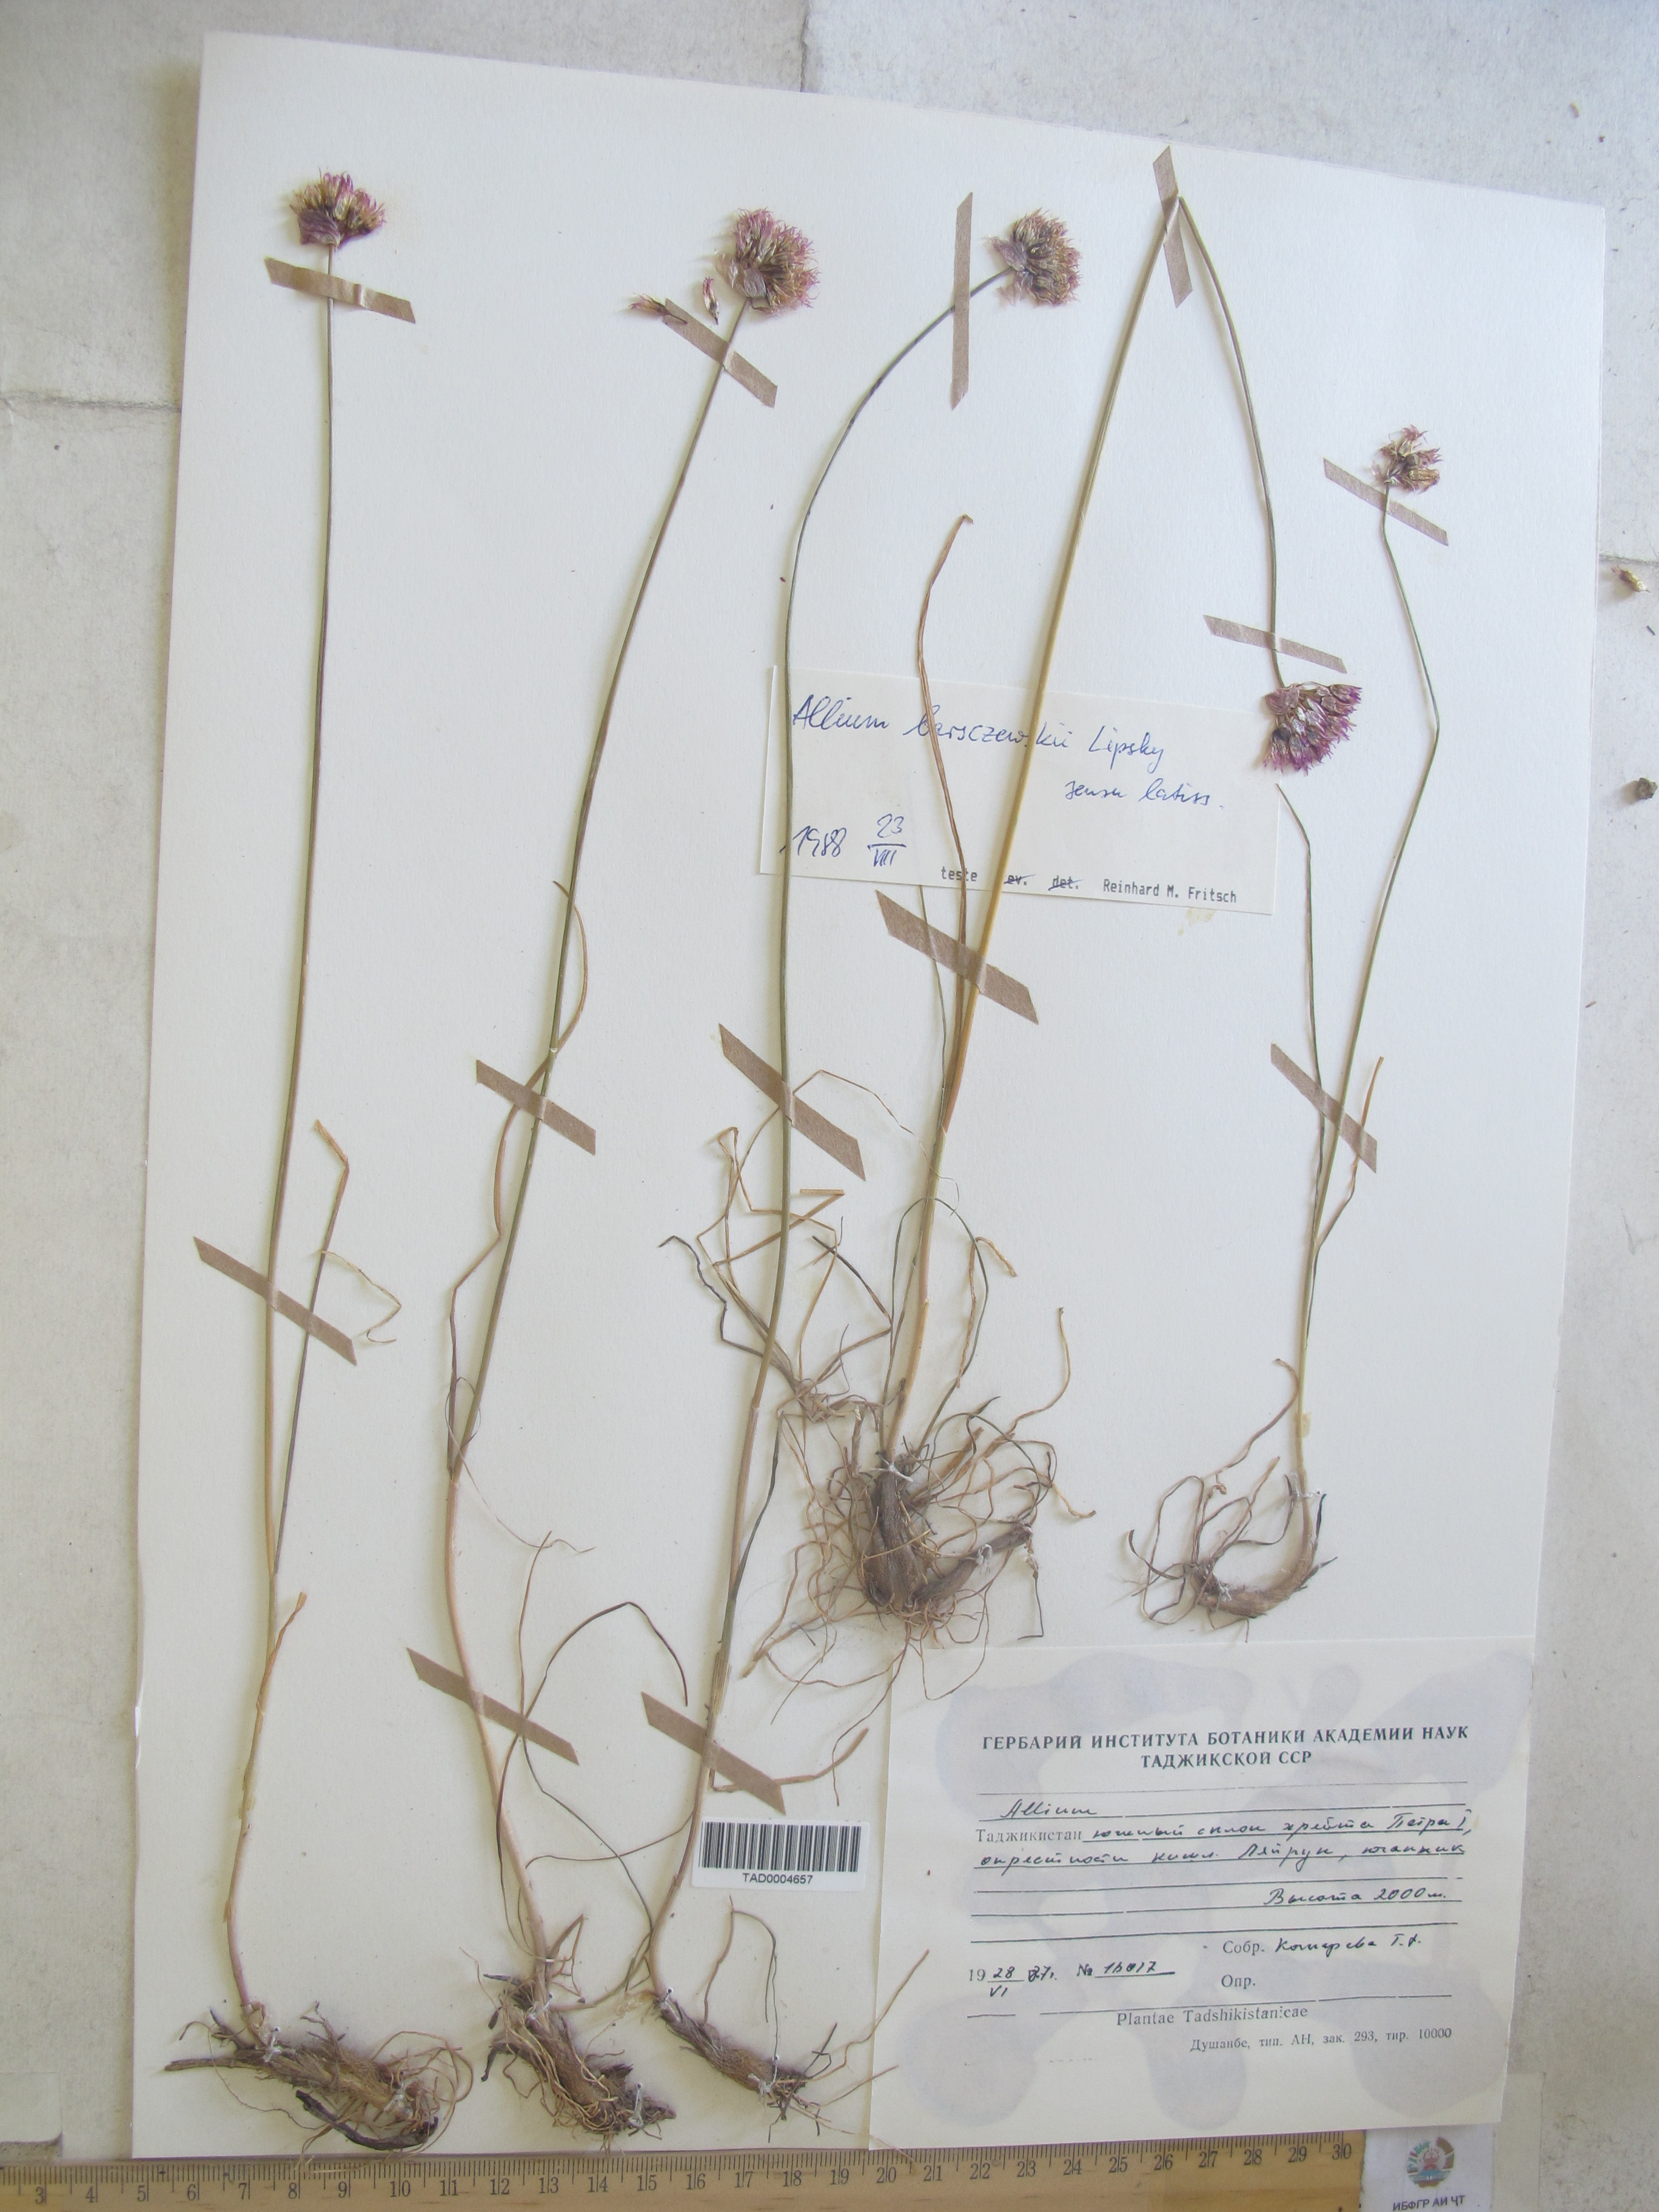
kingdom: Plantae
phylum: Tracheophyta
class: Liliopsida
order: Asparagales
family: Amaryllidaceae
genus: Allium
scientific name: Allium barsczewskii
